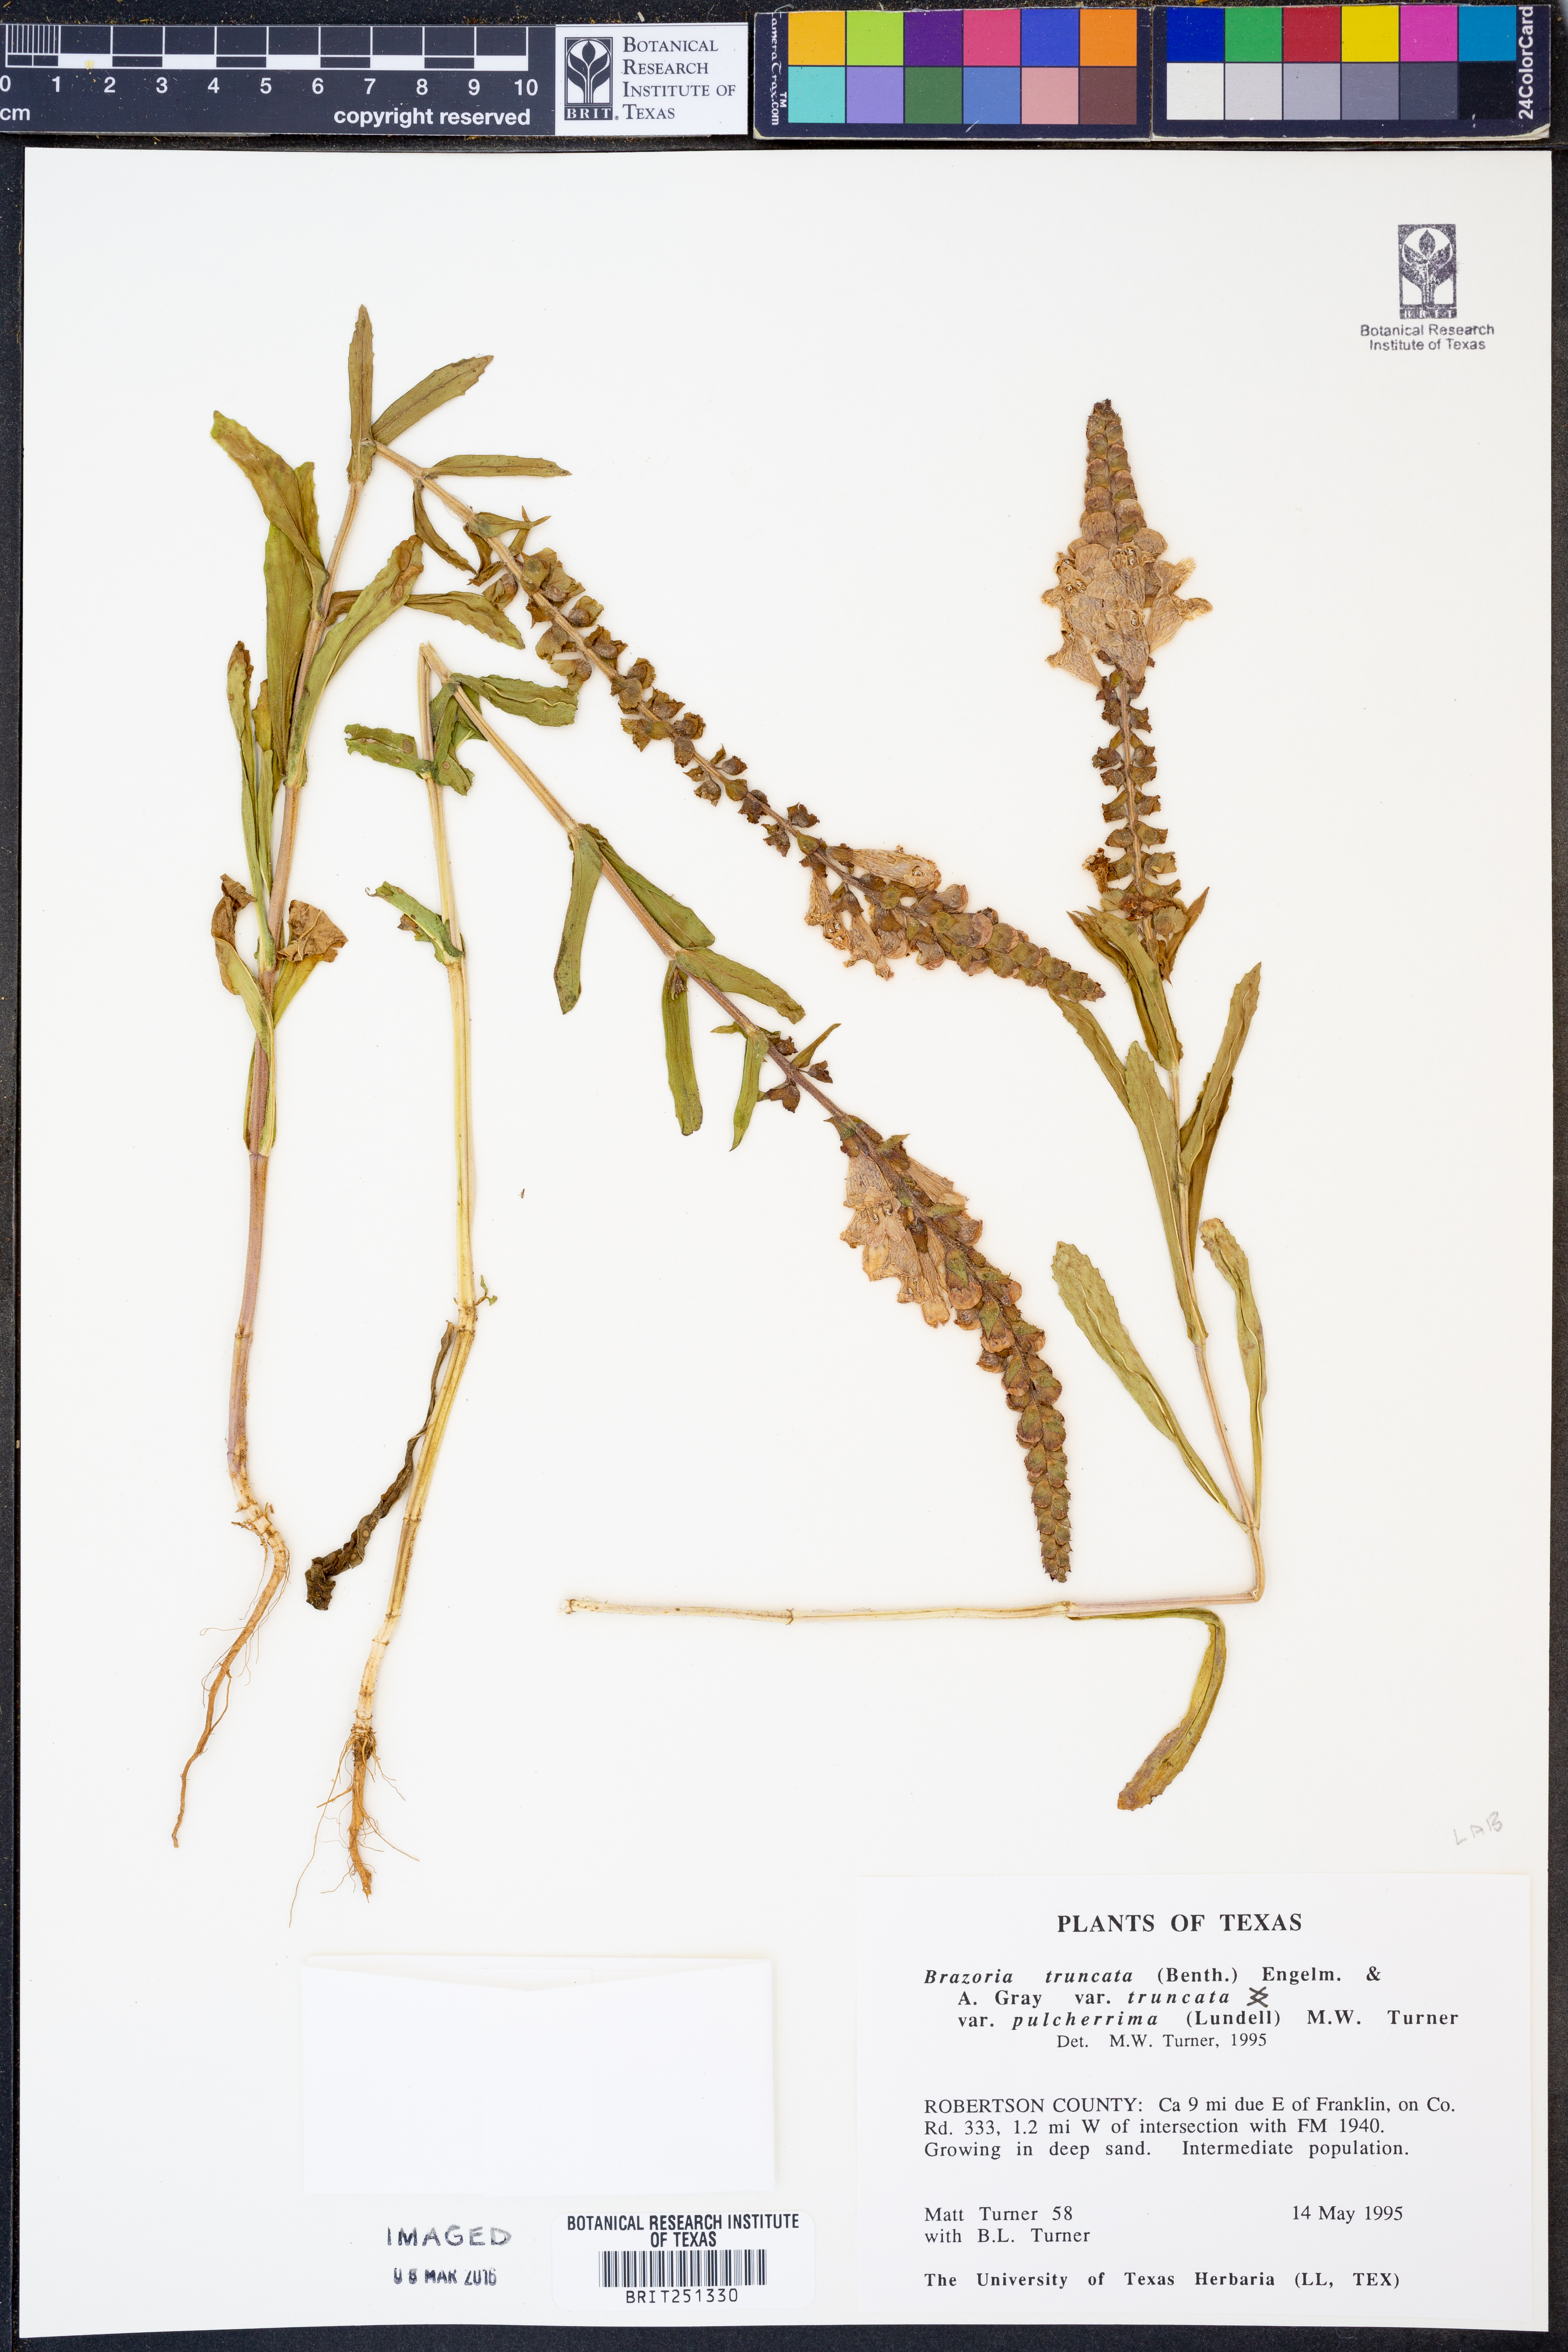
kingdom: Plantae
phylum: Tracheophyta
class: Magnoliopsida
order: Lamiales
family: Lamiaceae
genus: Brazoria
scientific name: Brazoria truncata
